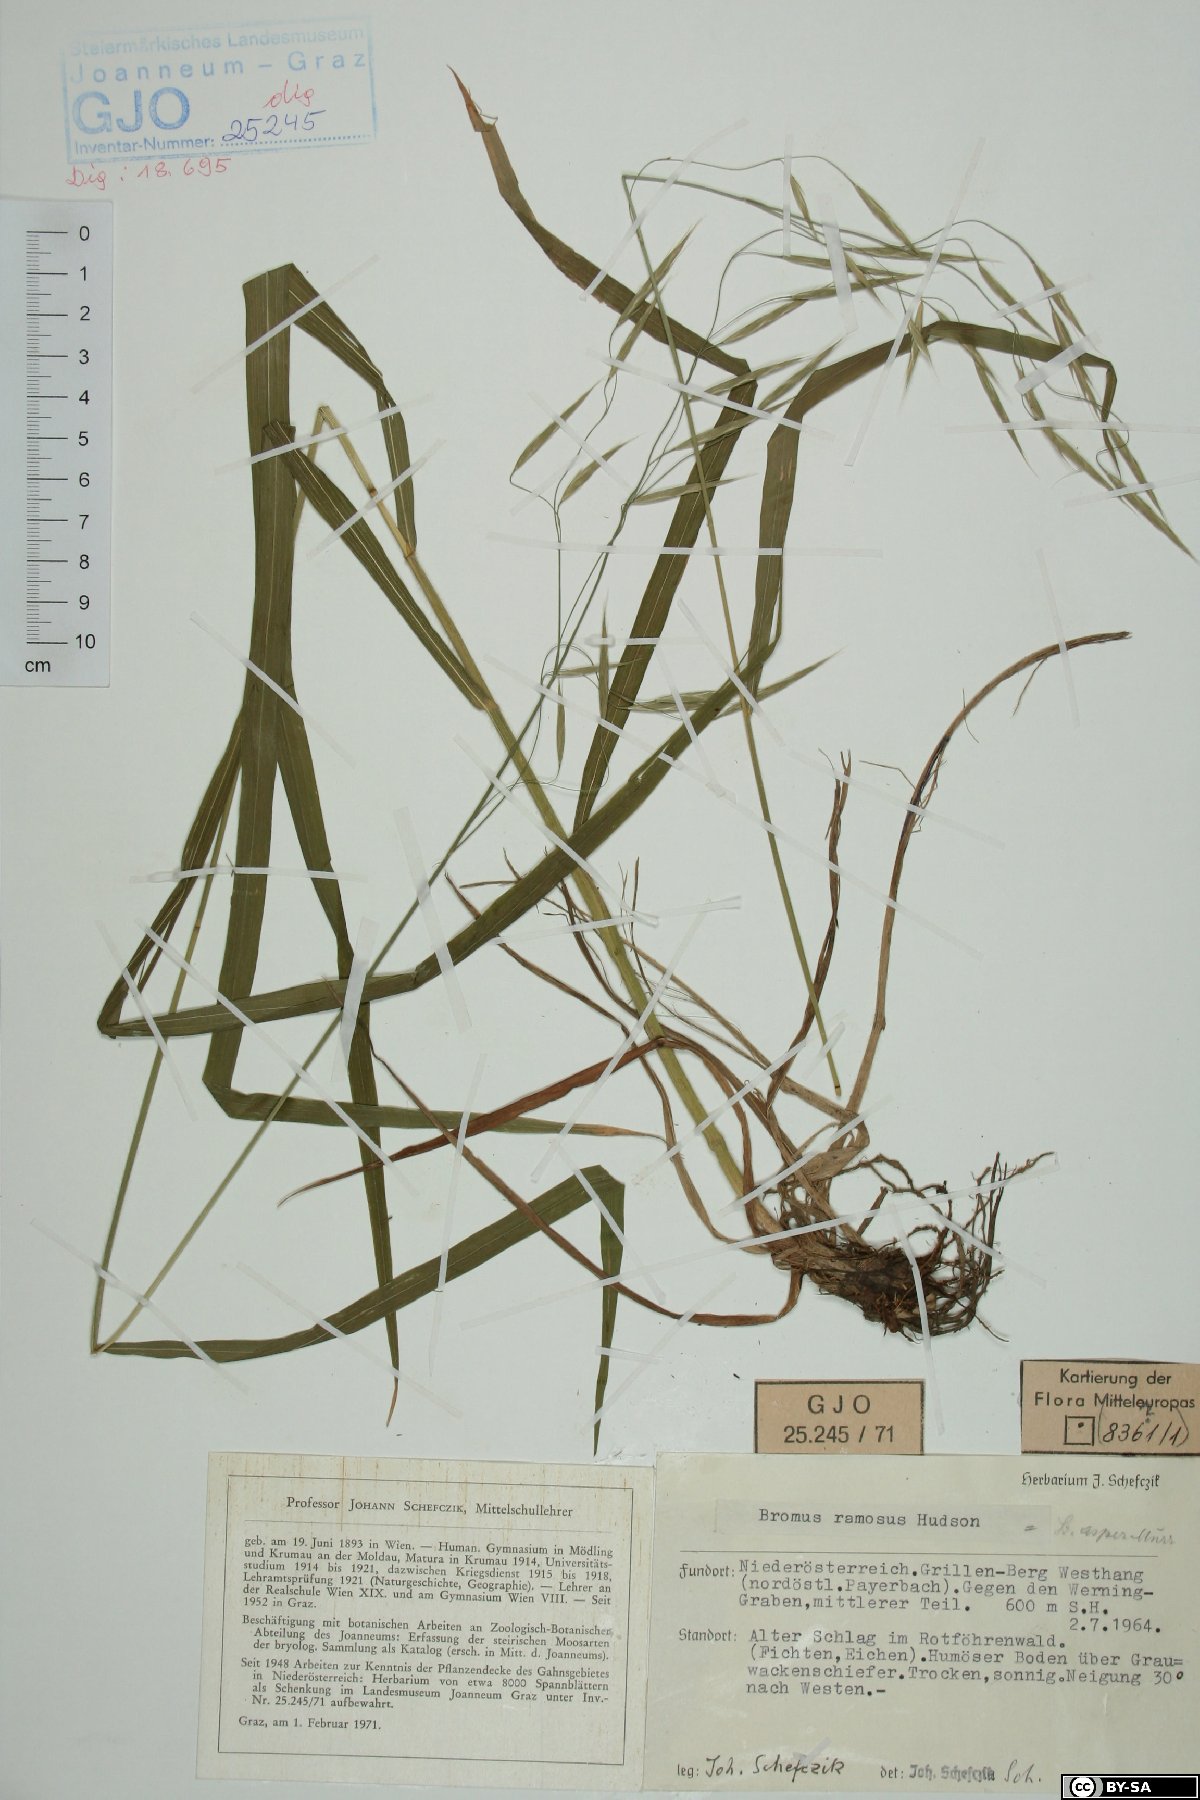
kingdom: Plantae
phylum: Tracheophyta
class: Liliopsida
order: Poales
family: Poaceae
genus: Bromus
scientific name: Bromus ramosus
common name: Hairy brome
